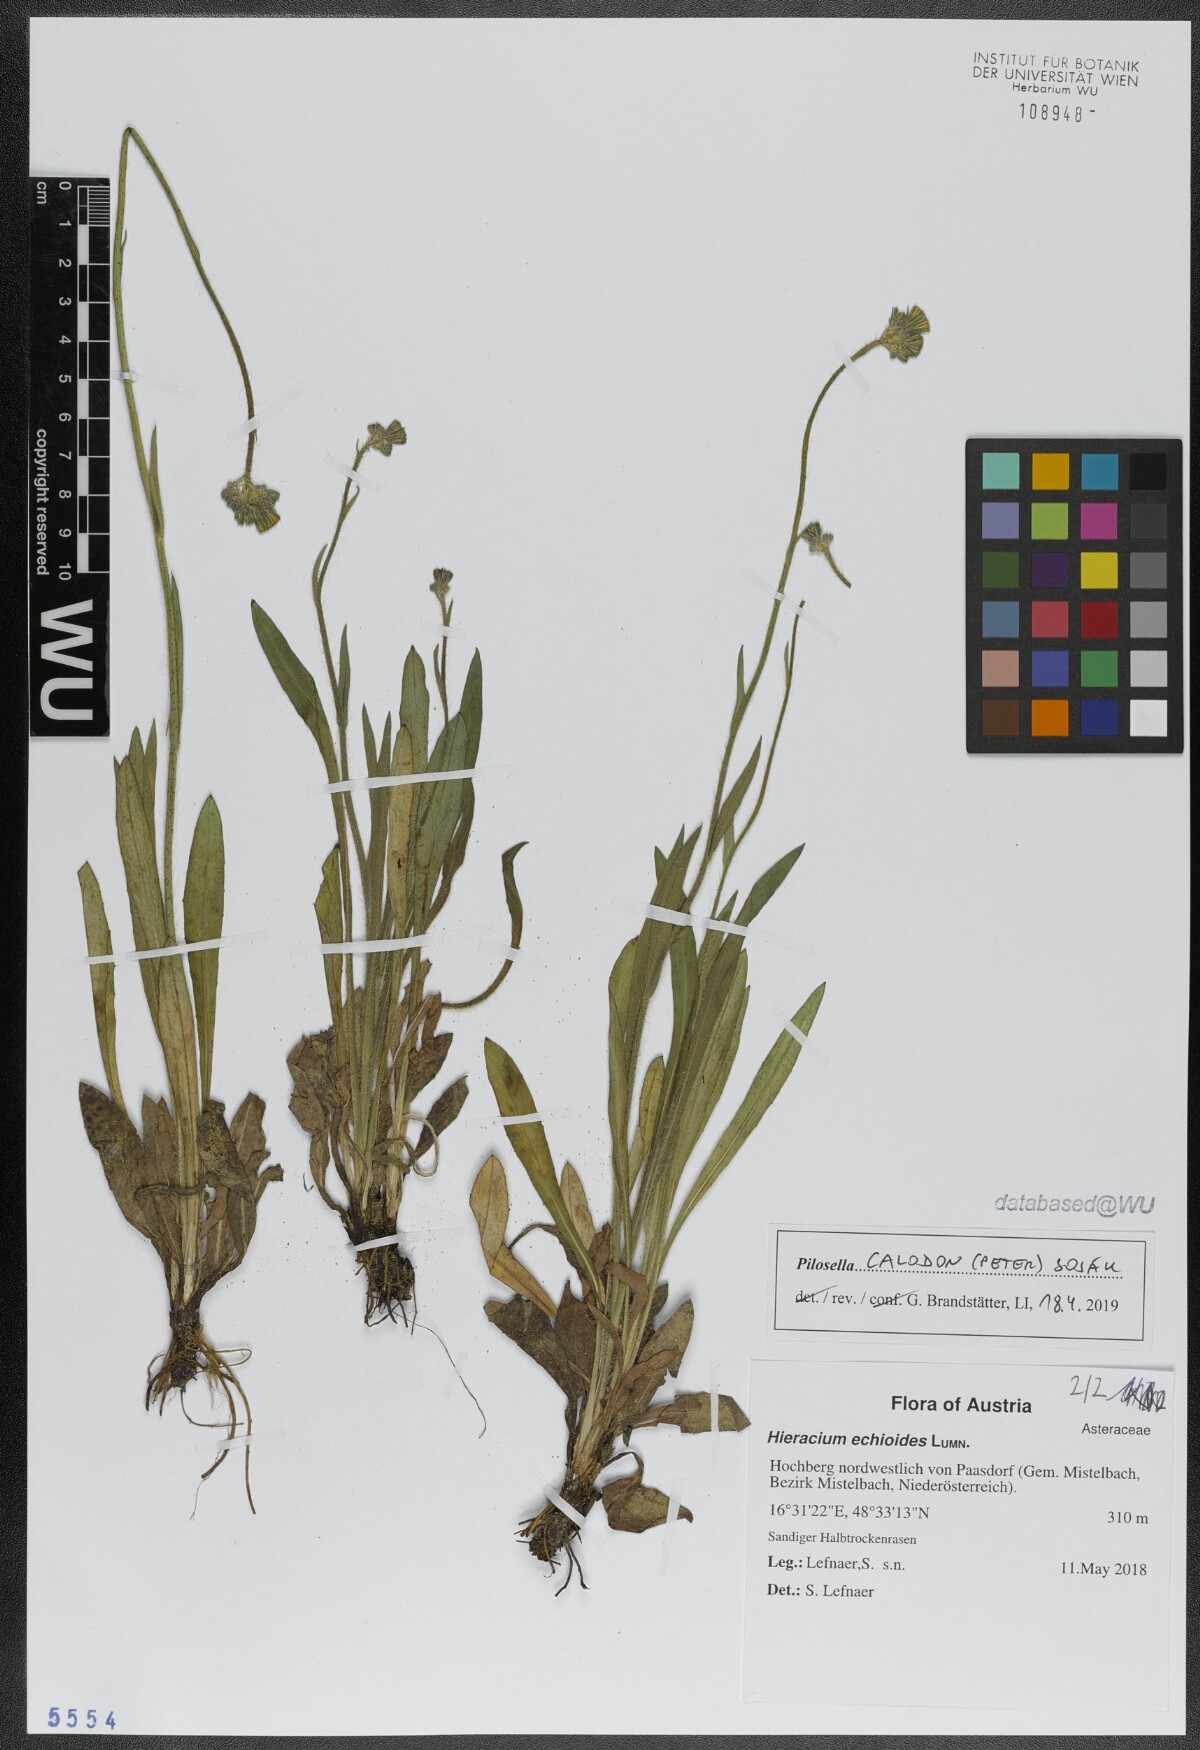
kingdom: Plantae
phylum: Tracheophyta
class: Magnoliopsida
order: Asterales
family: Asteraceae
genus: Pilosella
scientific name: Pilosella calodon
